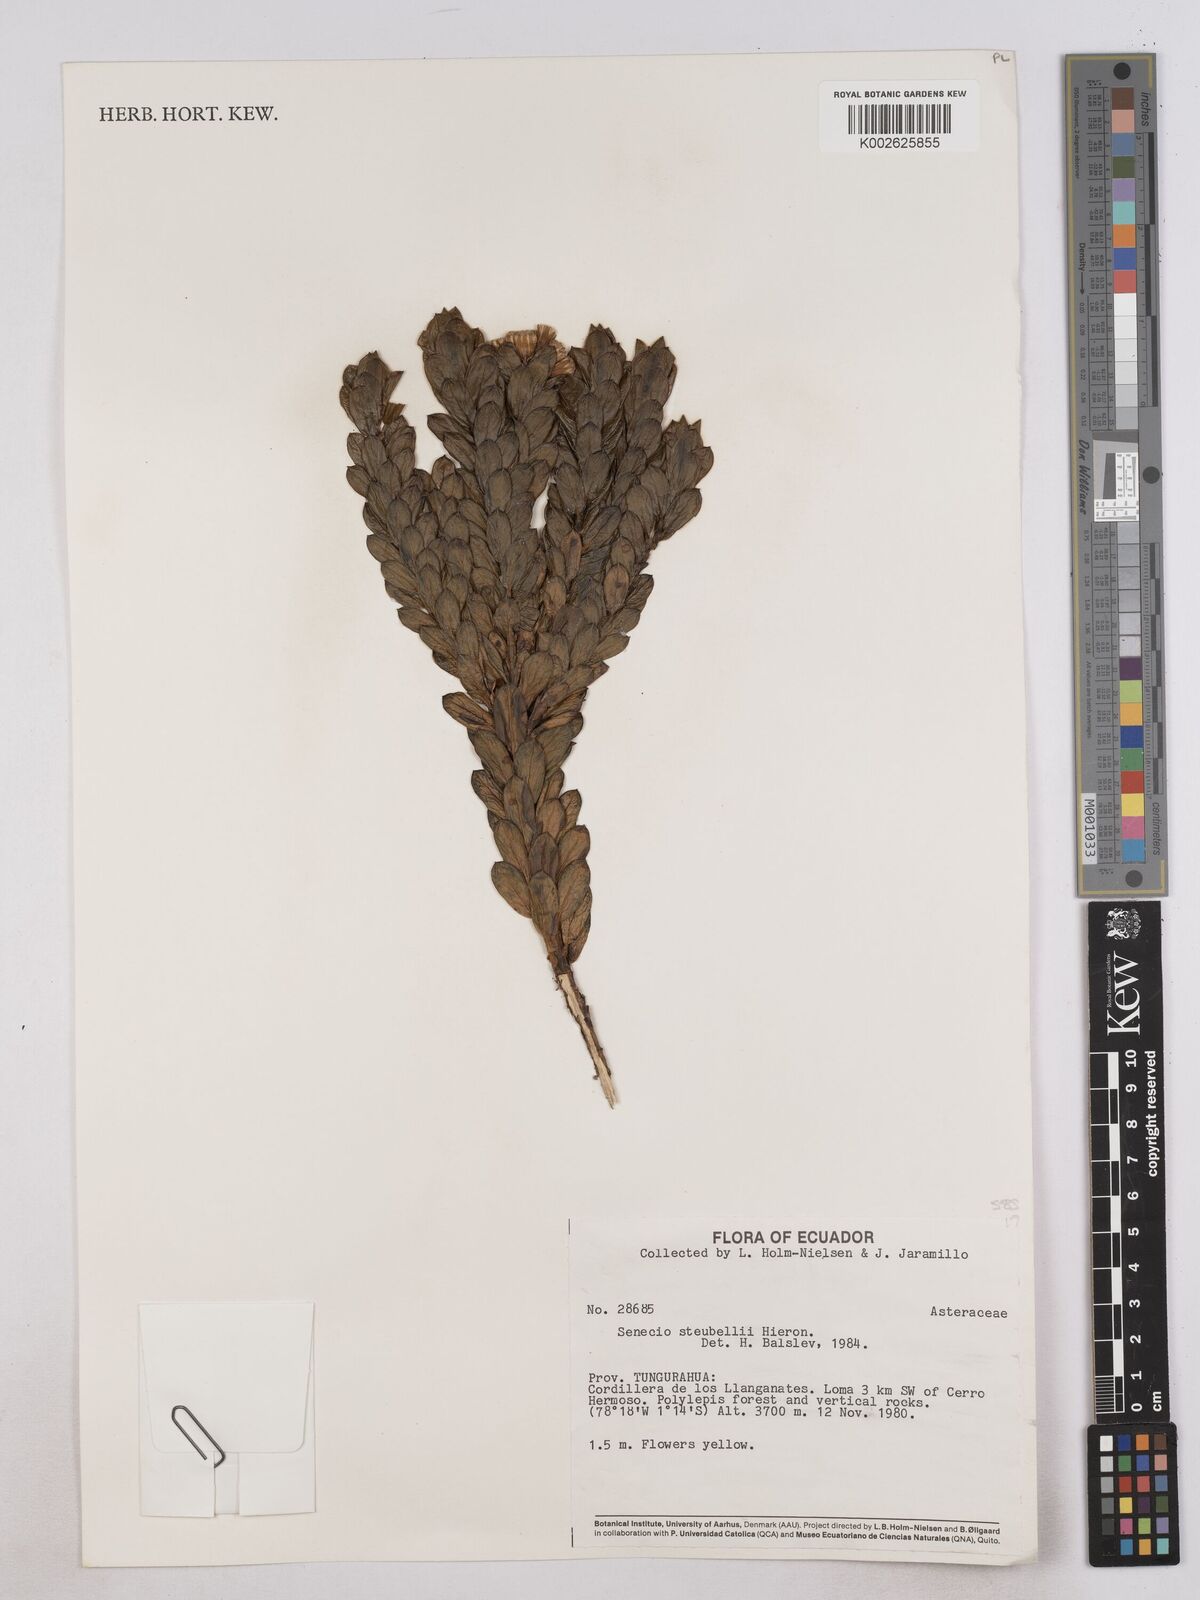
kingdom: Plantae
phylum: Tracheophyta
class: Magnoliopsida
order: Asterales
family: Asteraceae
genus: Monticalia
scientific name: Monticalia stuebelii
